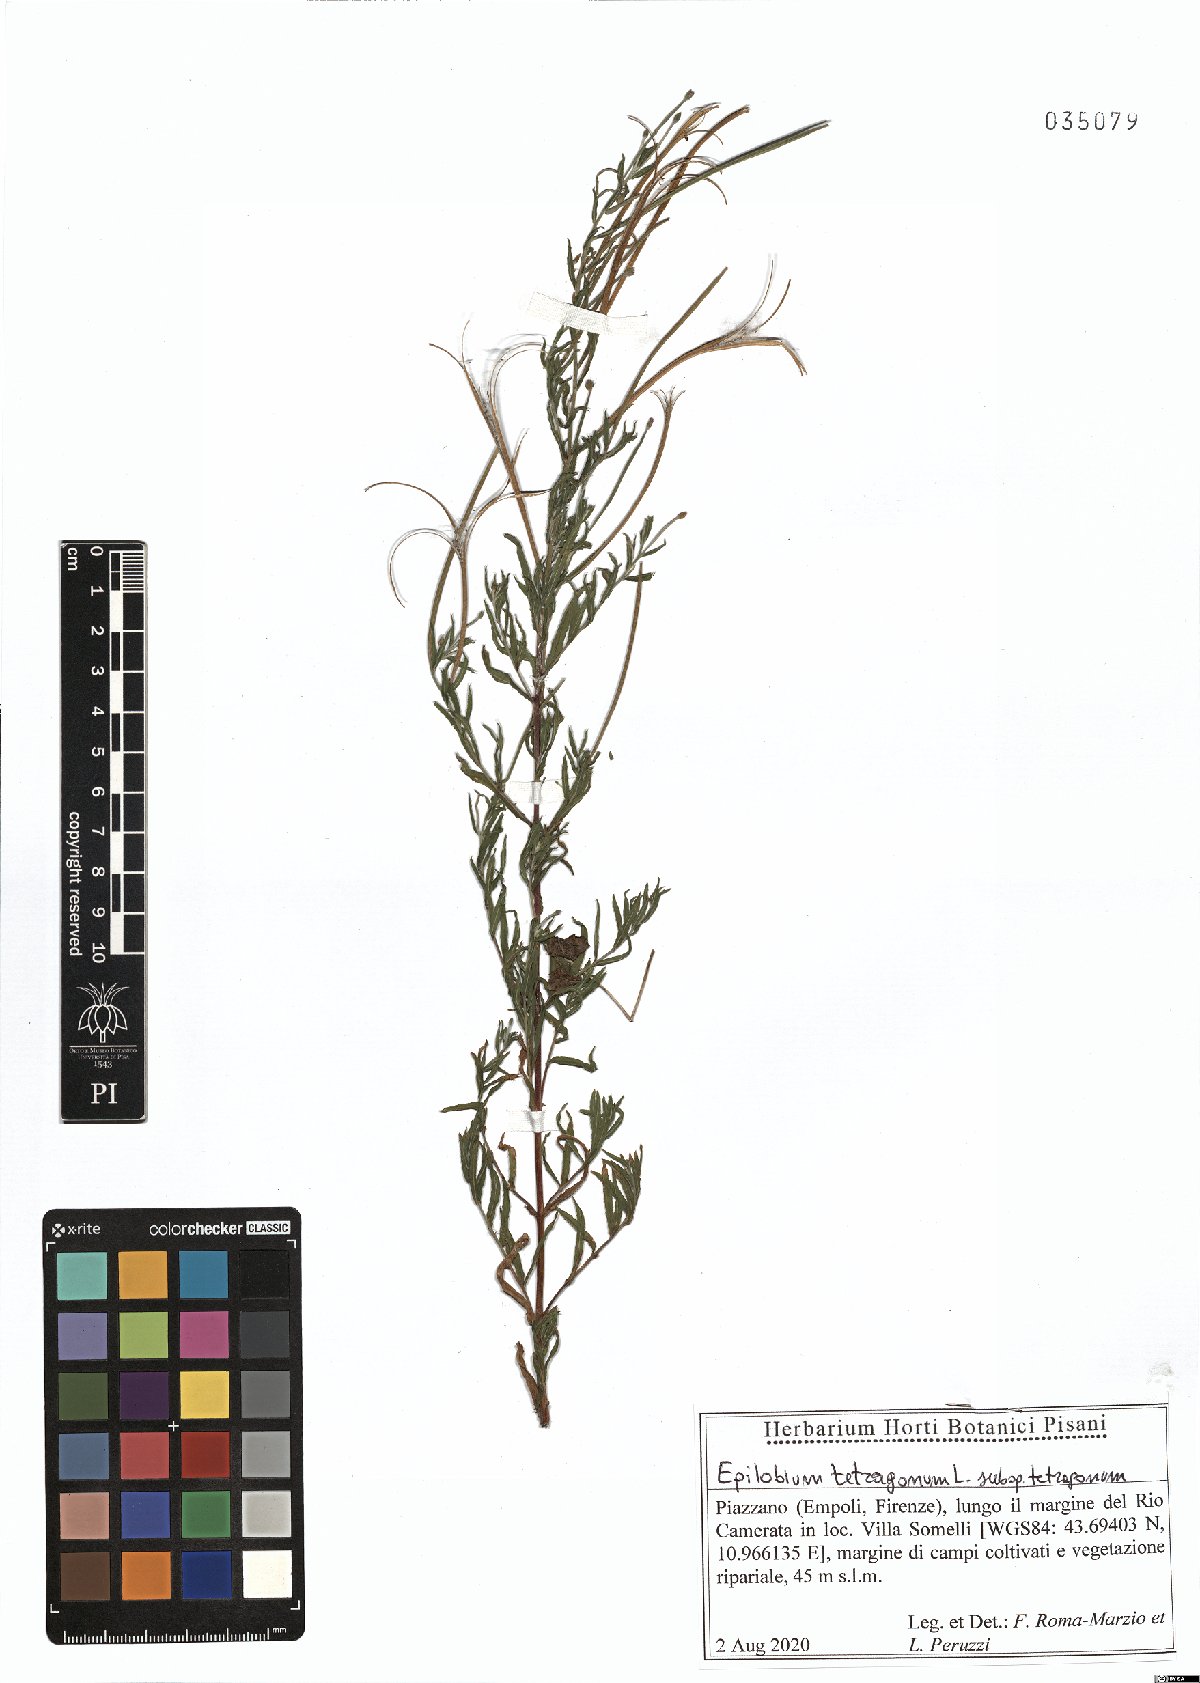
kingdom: Plantae
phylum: Tracheophyta
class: Magnoliopsida
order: Myrtales
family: Onagraceae
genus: Epilobium
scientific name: Epilobium tetragonum
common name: Square-stemmed willowherb
